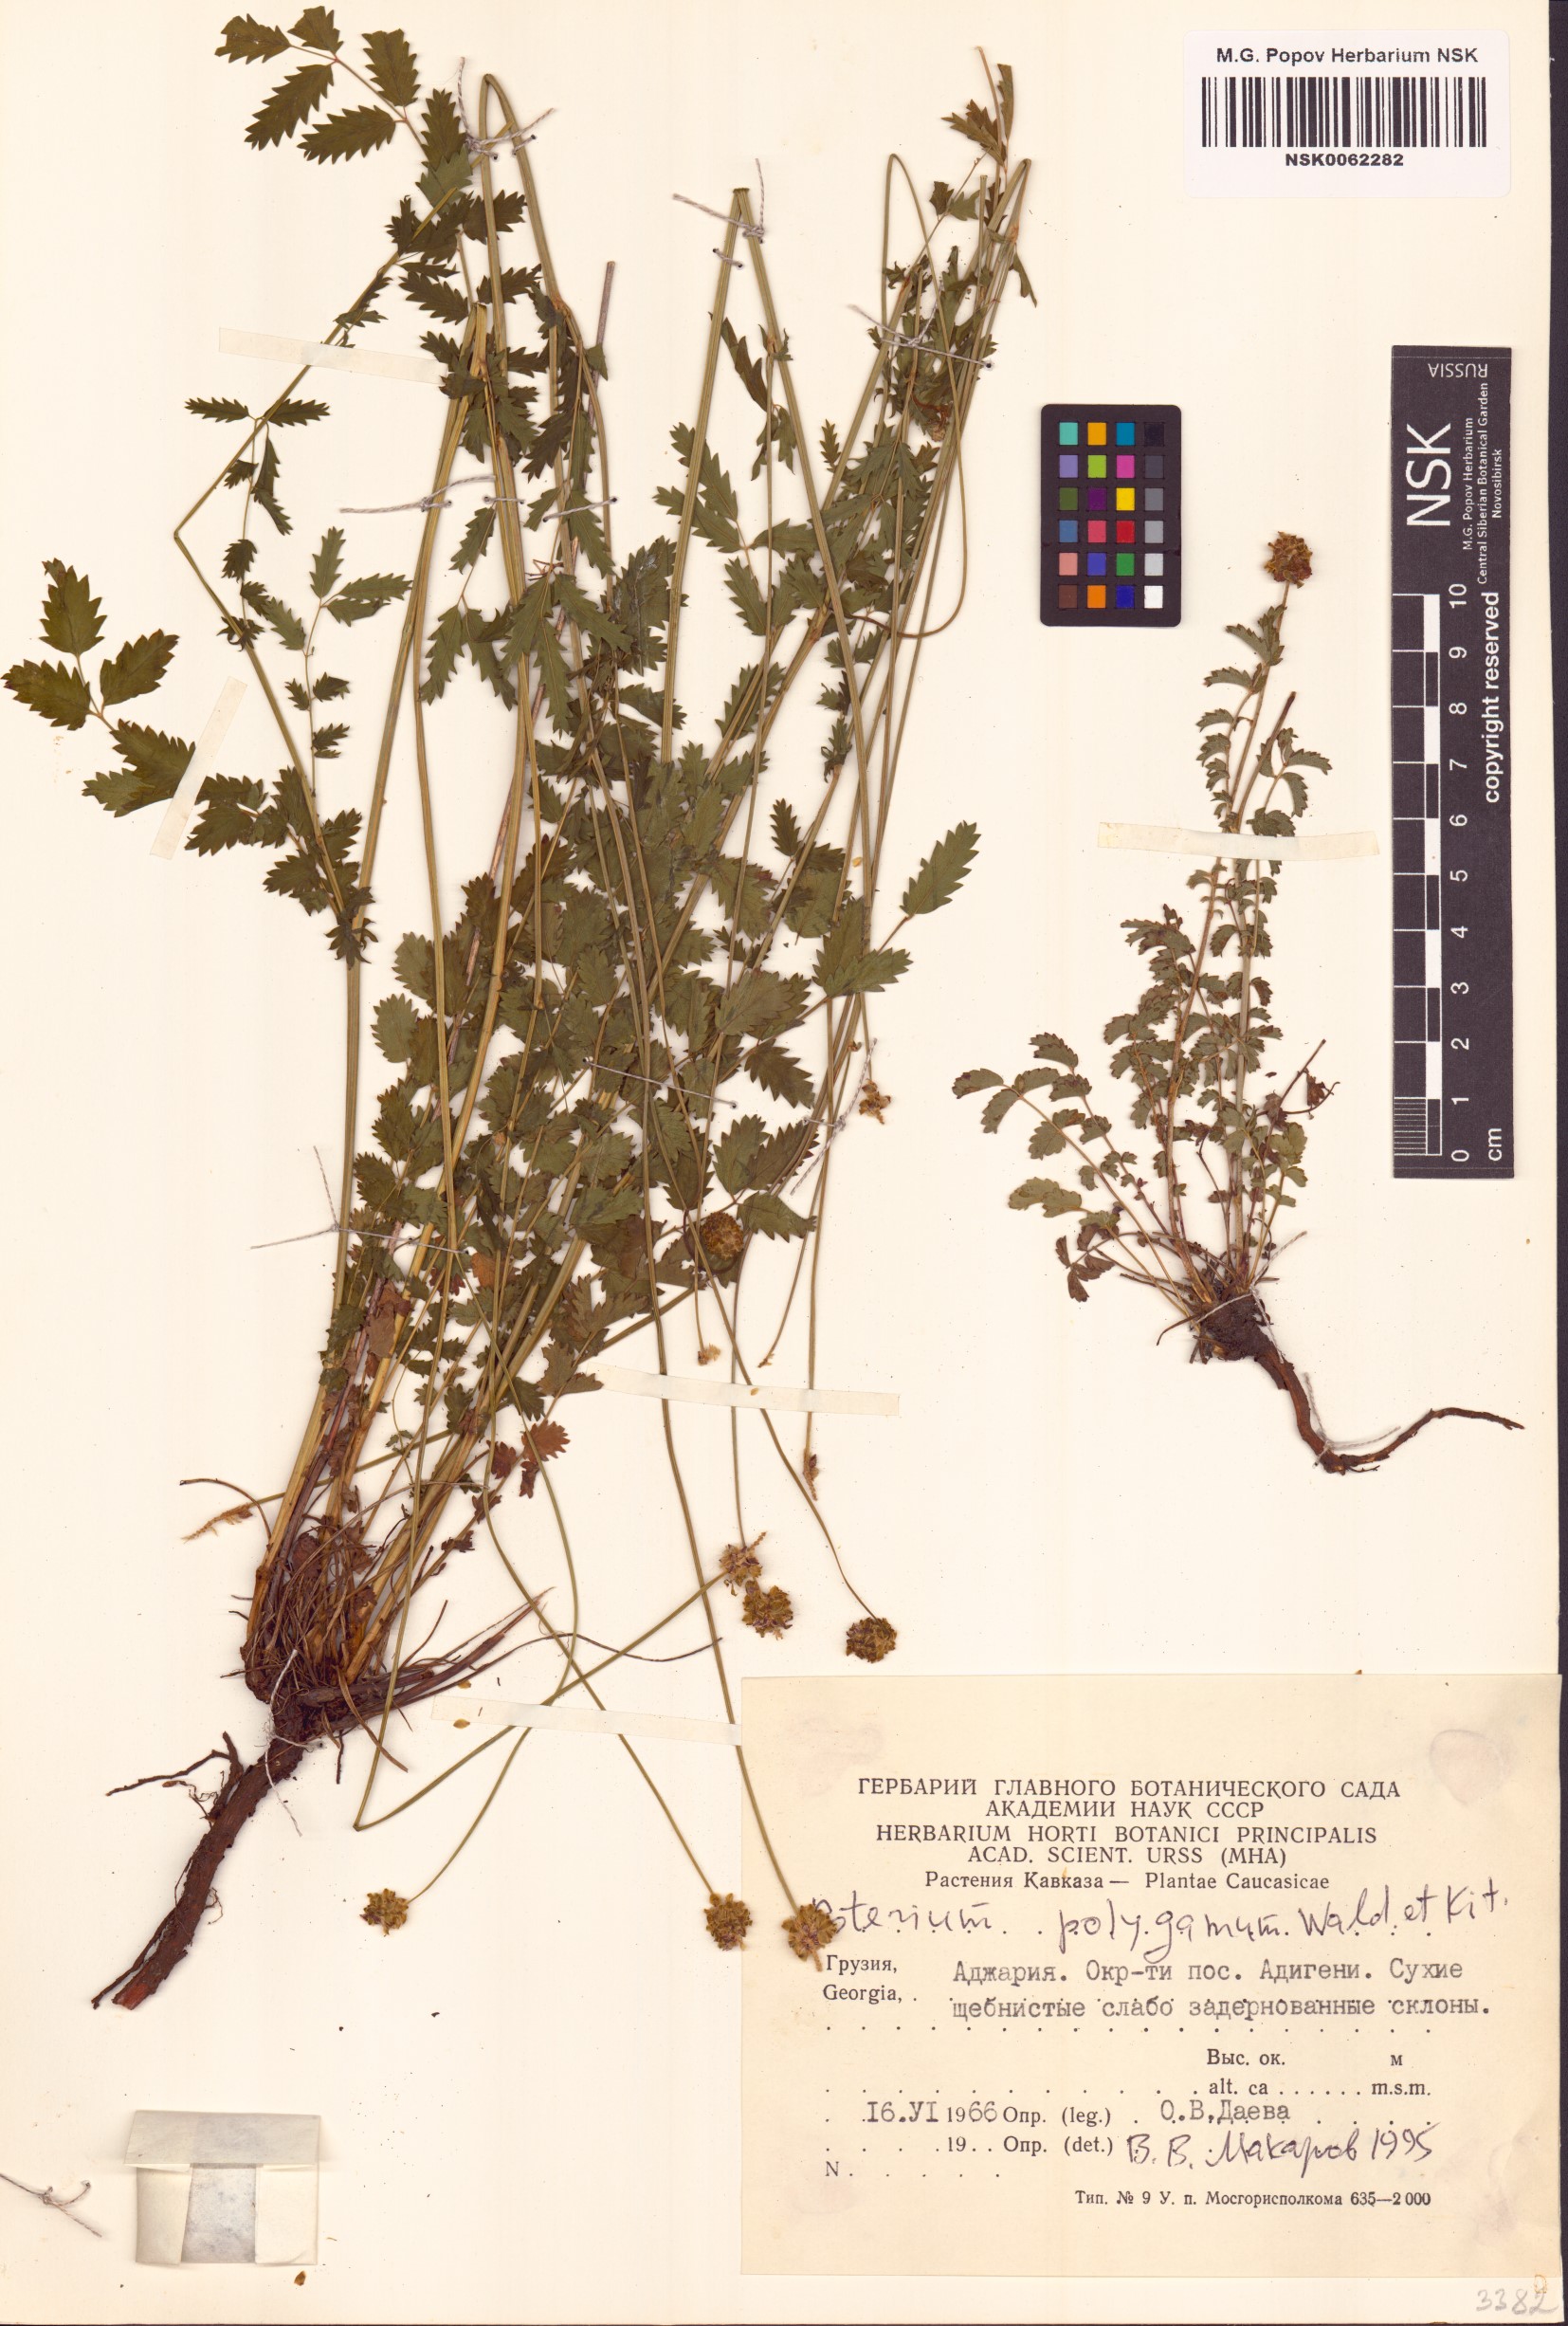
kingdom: Plantae
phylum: Tracheophyta
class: Magnoliopsida
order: Rosales
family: Rosaceae
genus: Poterium
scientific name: Poterium sanguisorba
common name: Salad burnet
